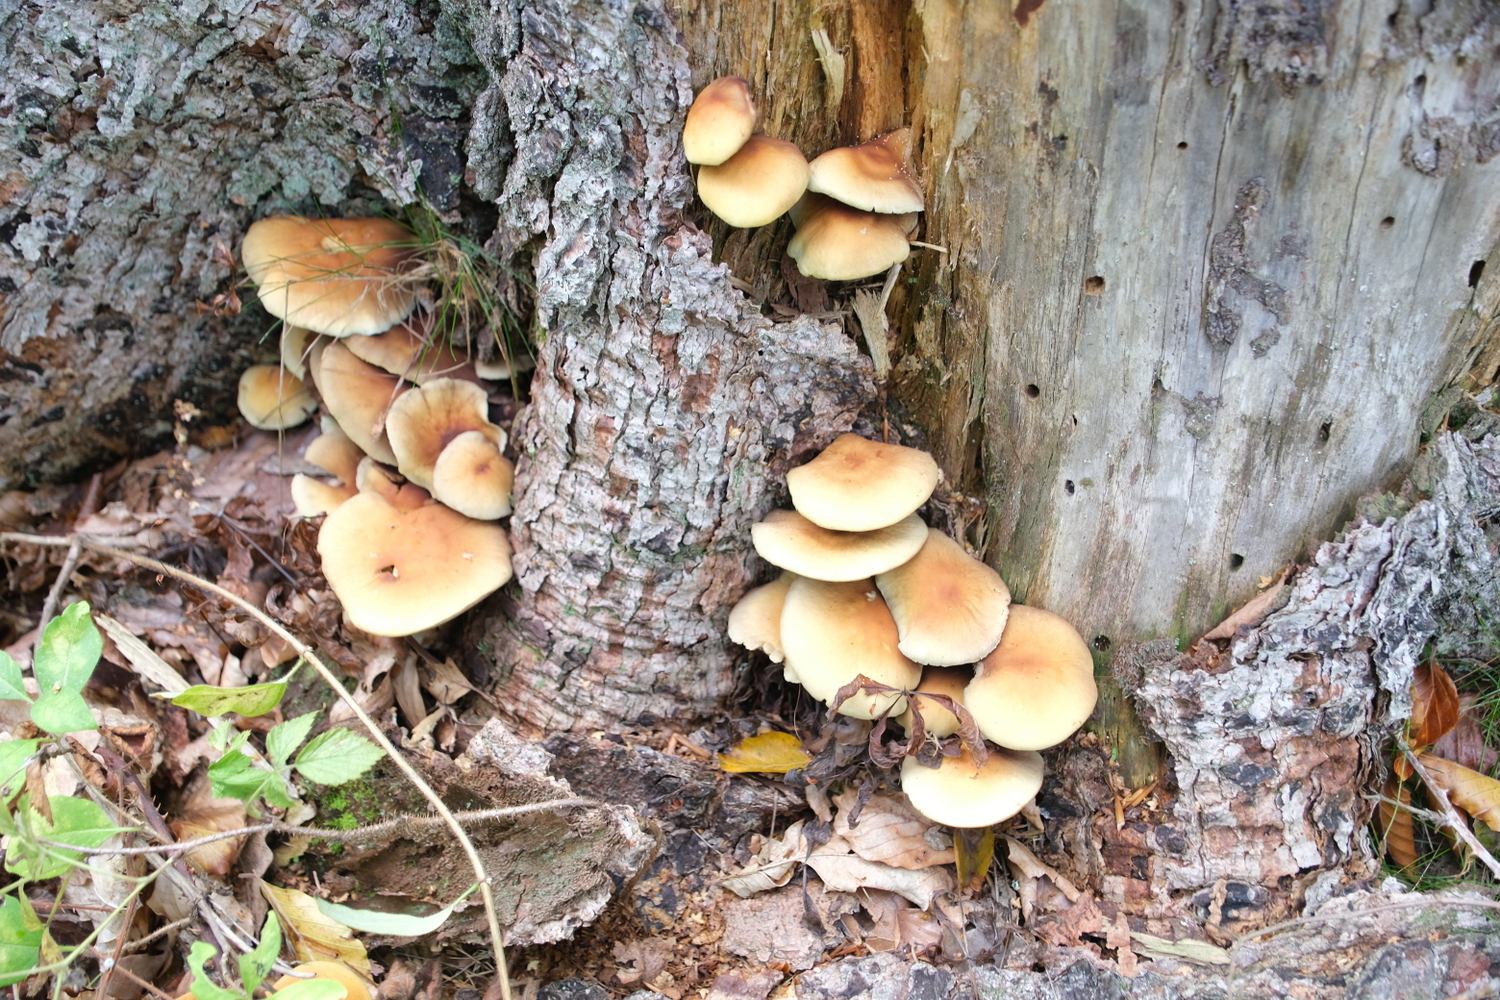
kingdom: Fungi
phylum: Basidiomycota
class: Agaricomycetes
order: Agaricales
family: Strophariaceae
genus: Hypholoma
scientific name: Hypholoma capnoides
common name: gran-svovlhat
